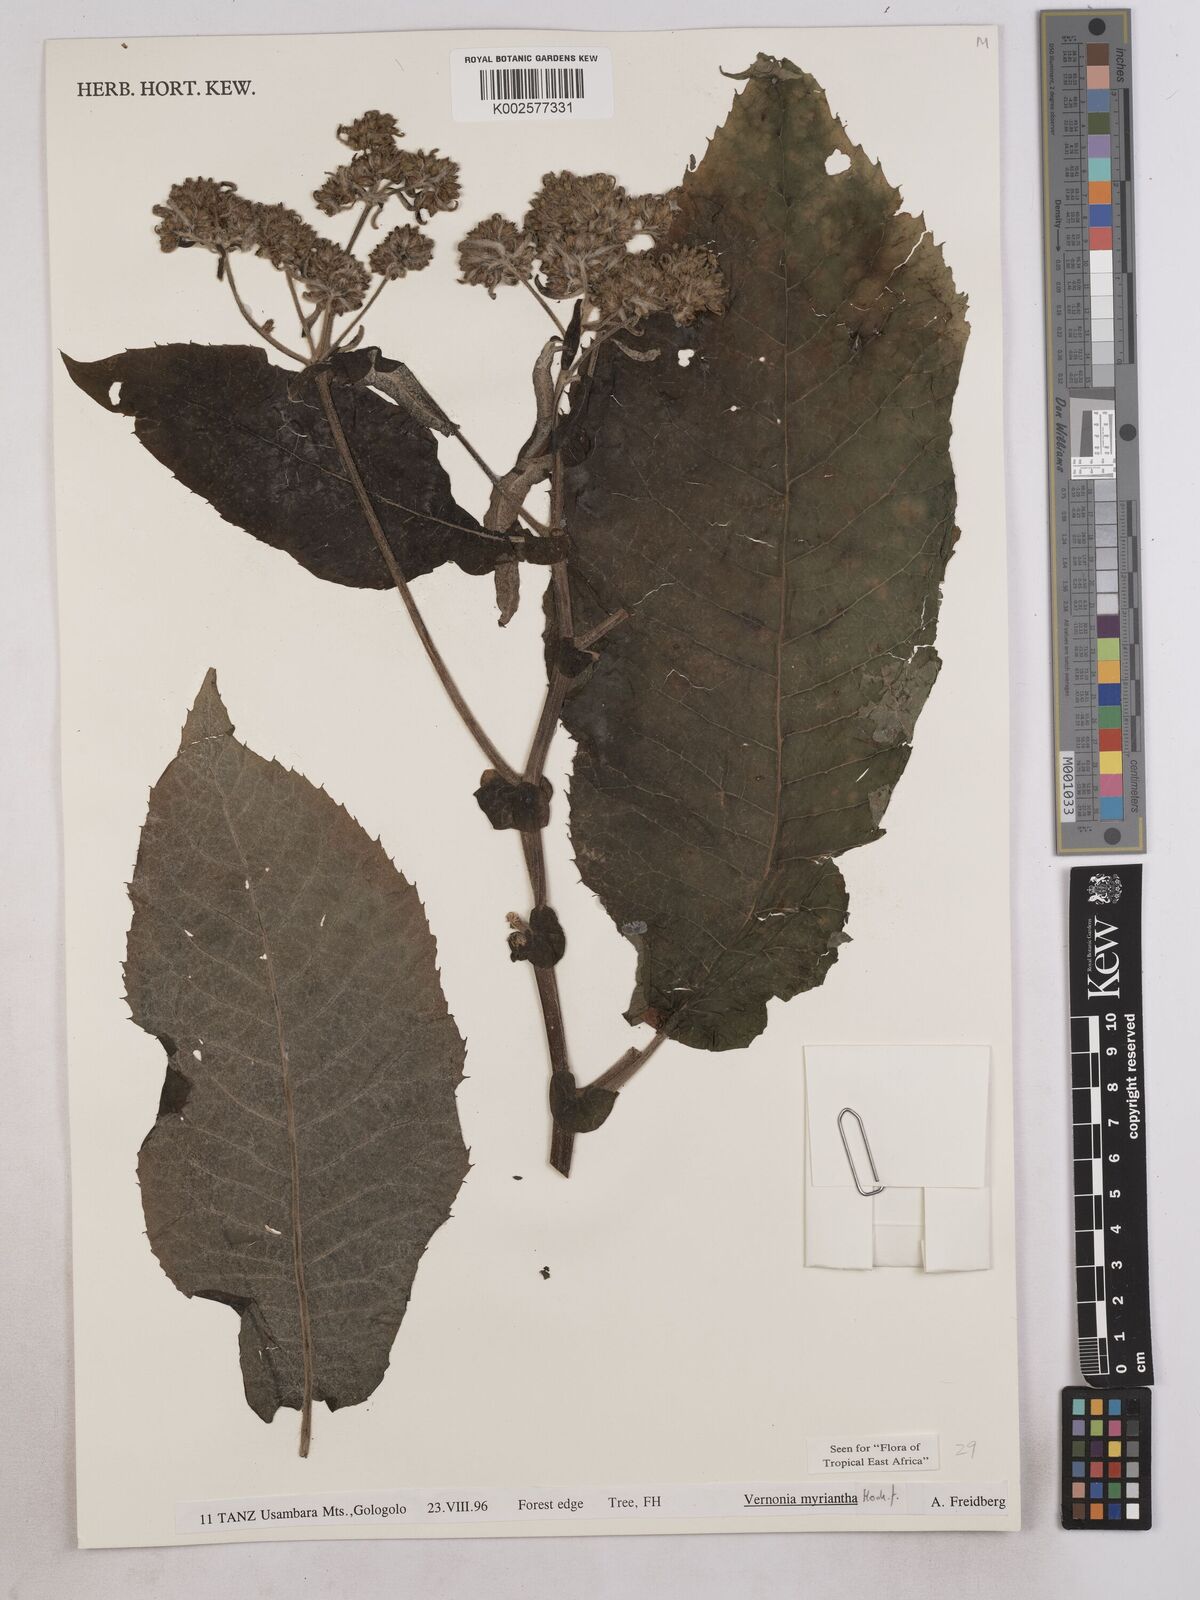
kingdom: Plantae
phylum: Tracheophyta
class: Magnoliopsida
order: Asterales
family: Asteraceae
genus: Gymnanthemum
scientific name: Gymnanthemum myrianthum
